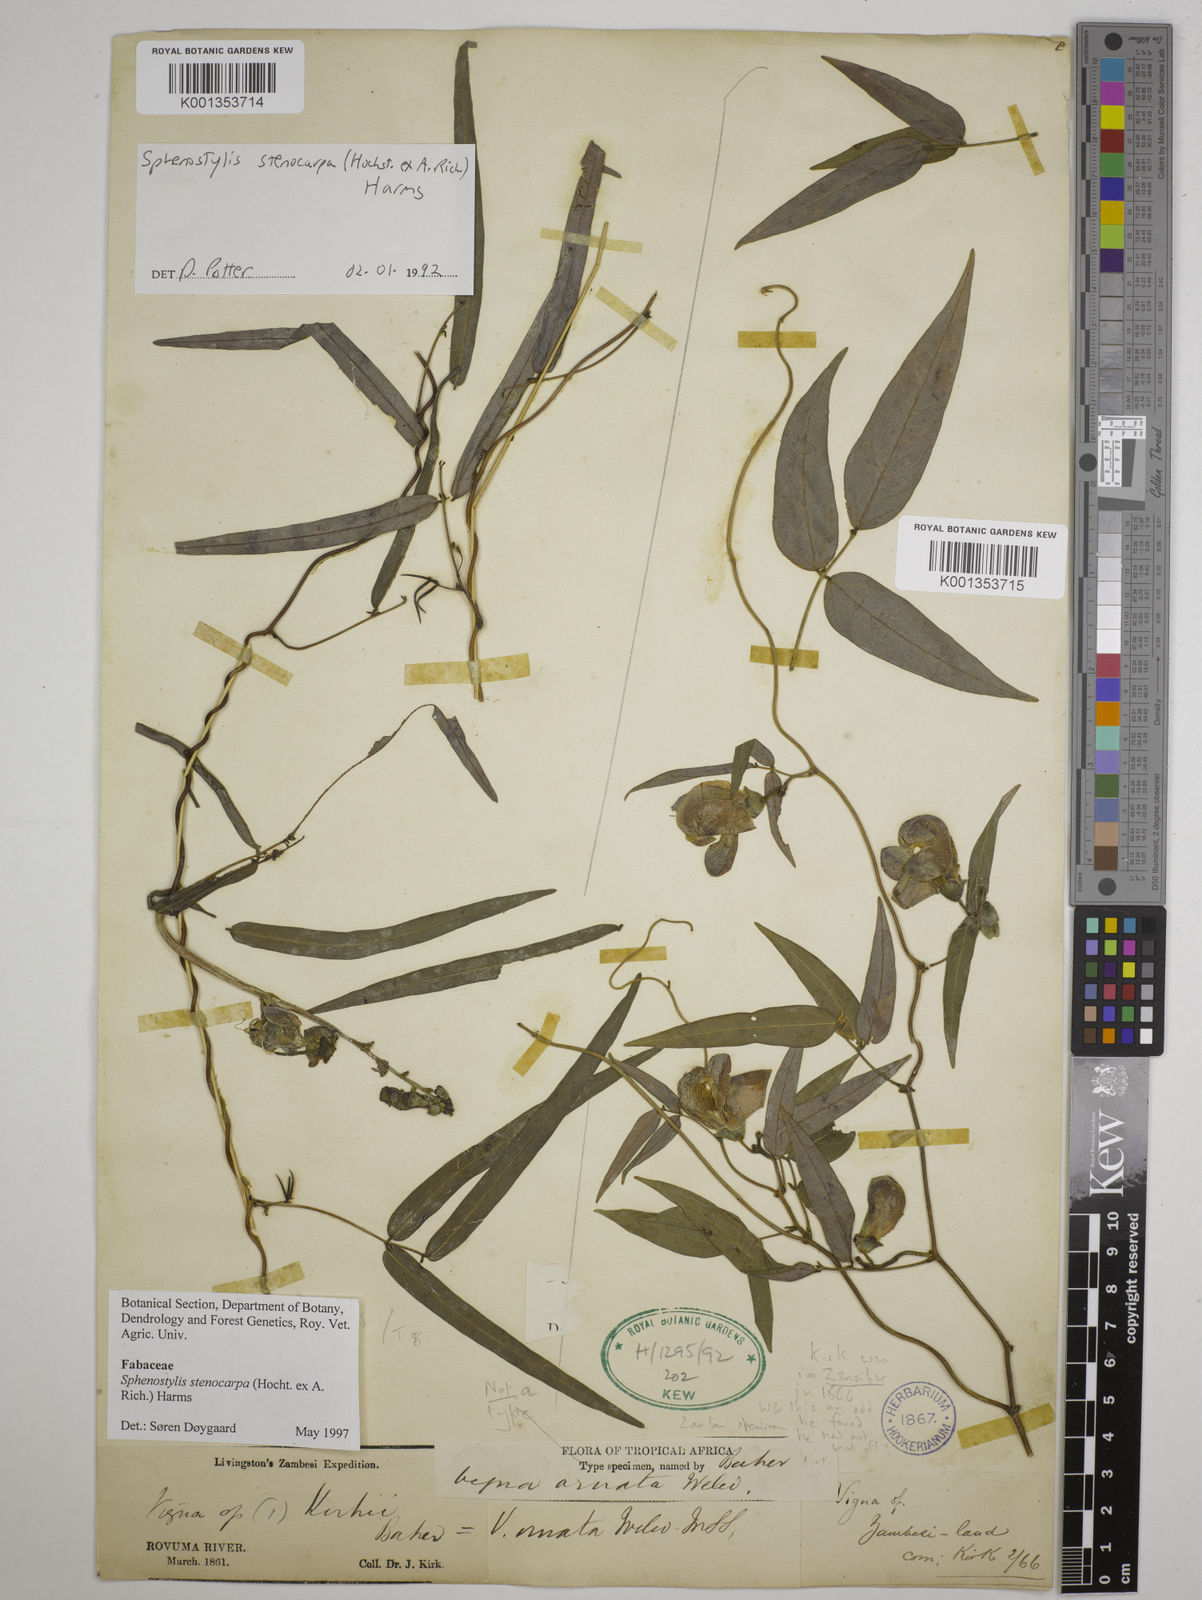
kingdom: Plantae
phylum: Tracheophyta
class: Magnoliopsida
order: Fabales
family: Fabaceae
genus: Sphenostylis
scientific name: Sphenostylis stenocarpa
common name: Yam-pea
